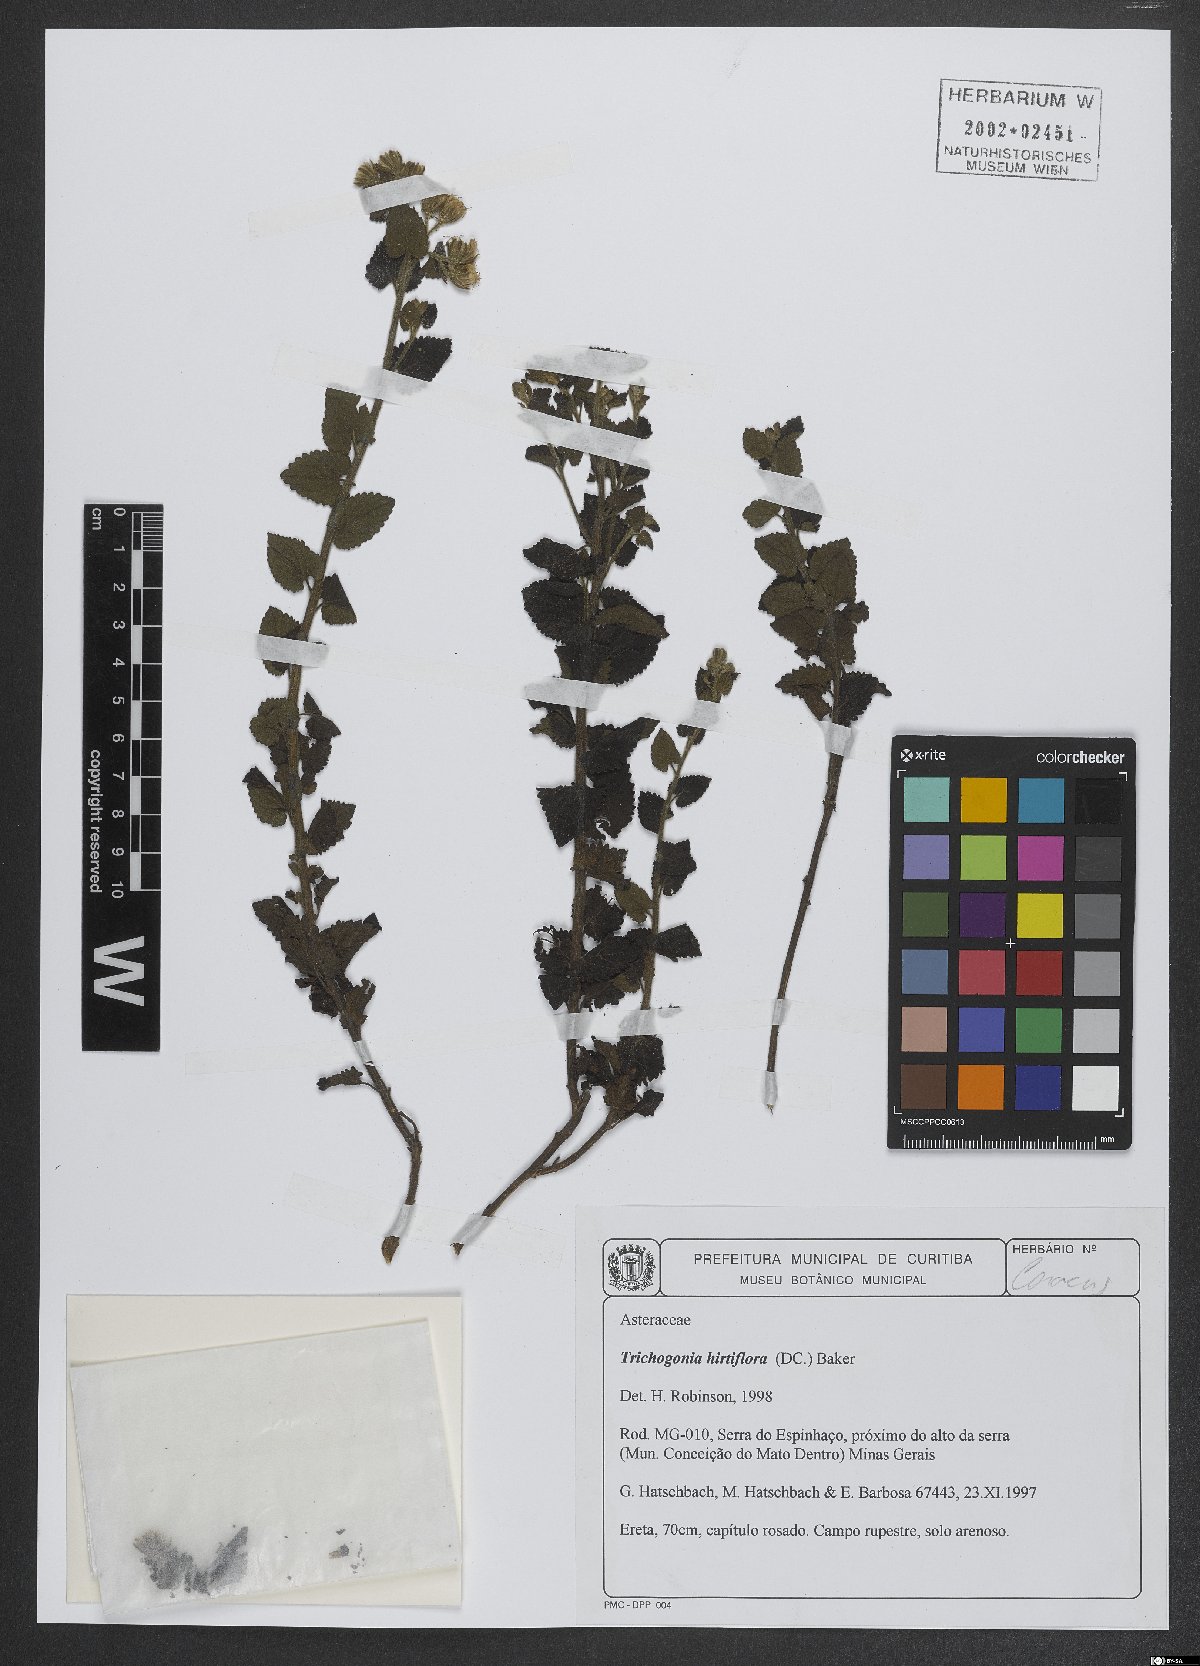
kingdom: Plantae
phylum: Tracheophyta
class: Magnoliopsida
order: Asterales
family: Asteraceae
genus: Trichogonia
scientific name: Trichogonia hirtiflora
